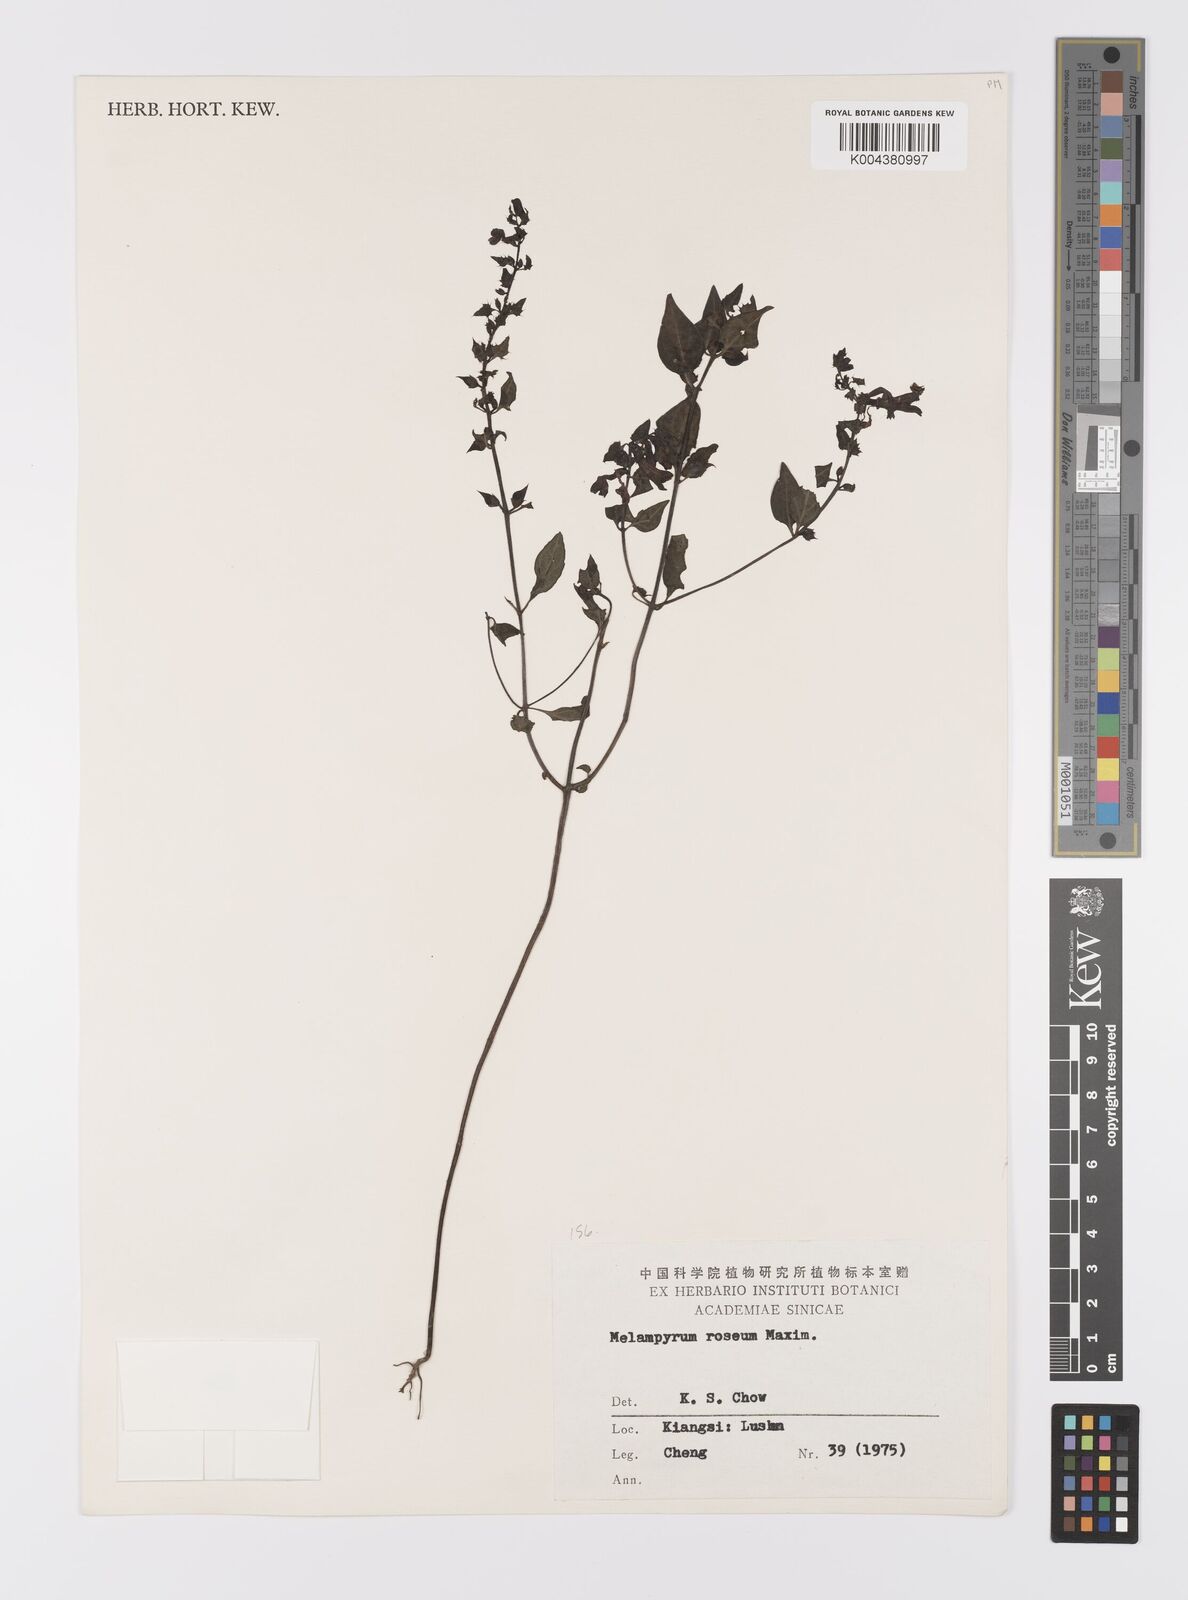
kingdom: Plantae
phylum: Tracheophyta
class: Magnoliopsida
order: Lamiales
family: Orobanchaceae
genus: Melampyrum
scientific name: Melampyrum roseum
